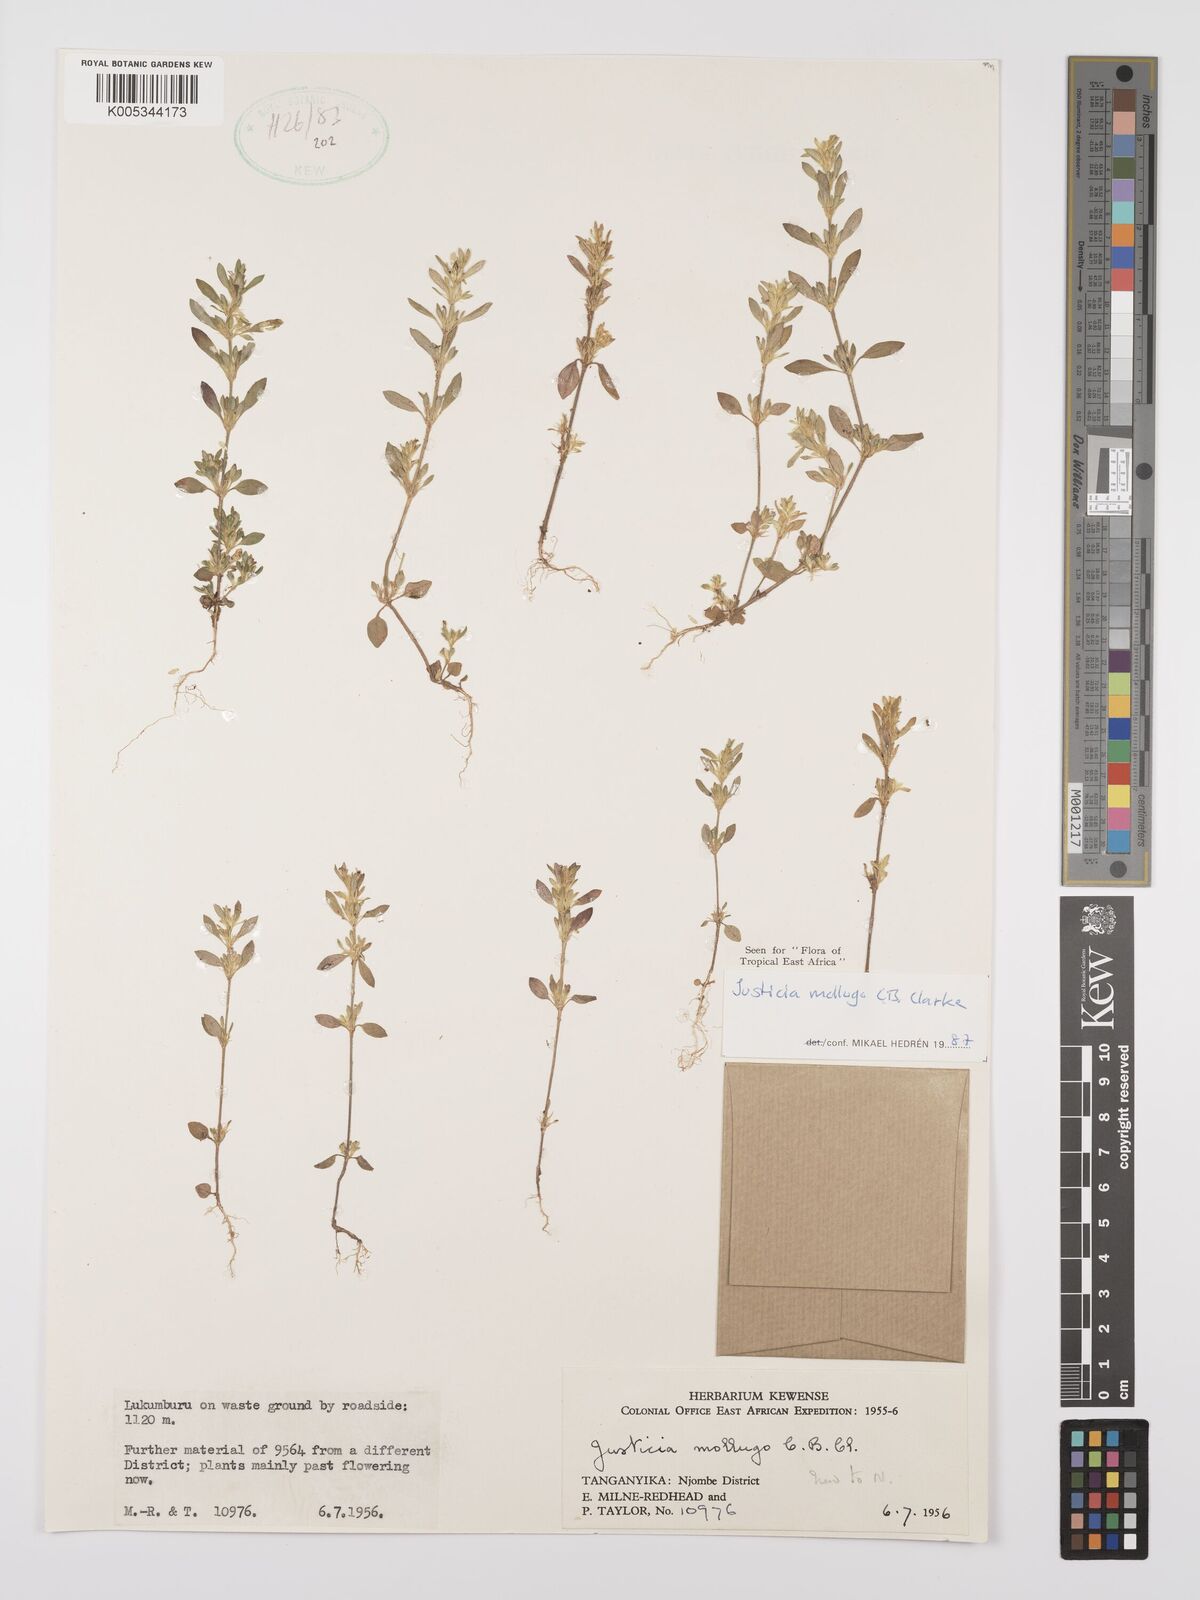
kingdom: Plantae
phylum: Tracheophyta
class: Magnoliopsida
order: Lamiales
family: Acanthaceae
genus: Justicia
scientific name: Justicia mollugo
